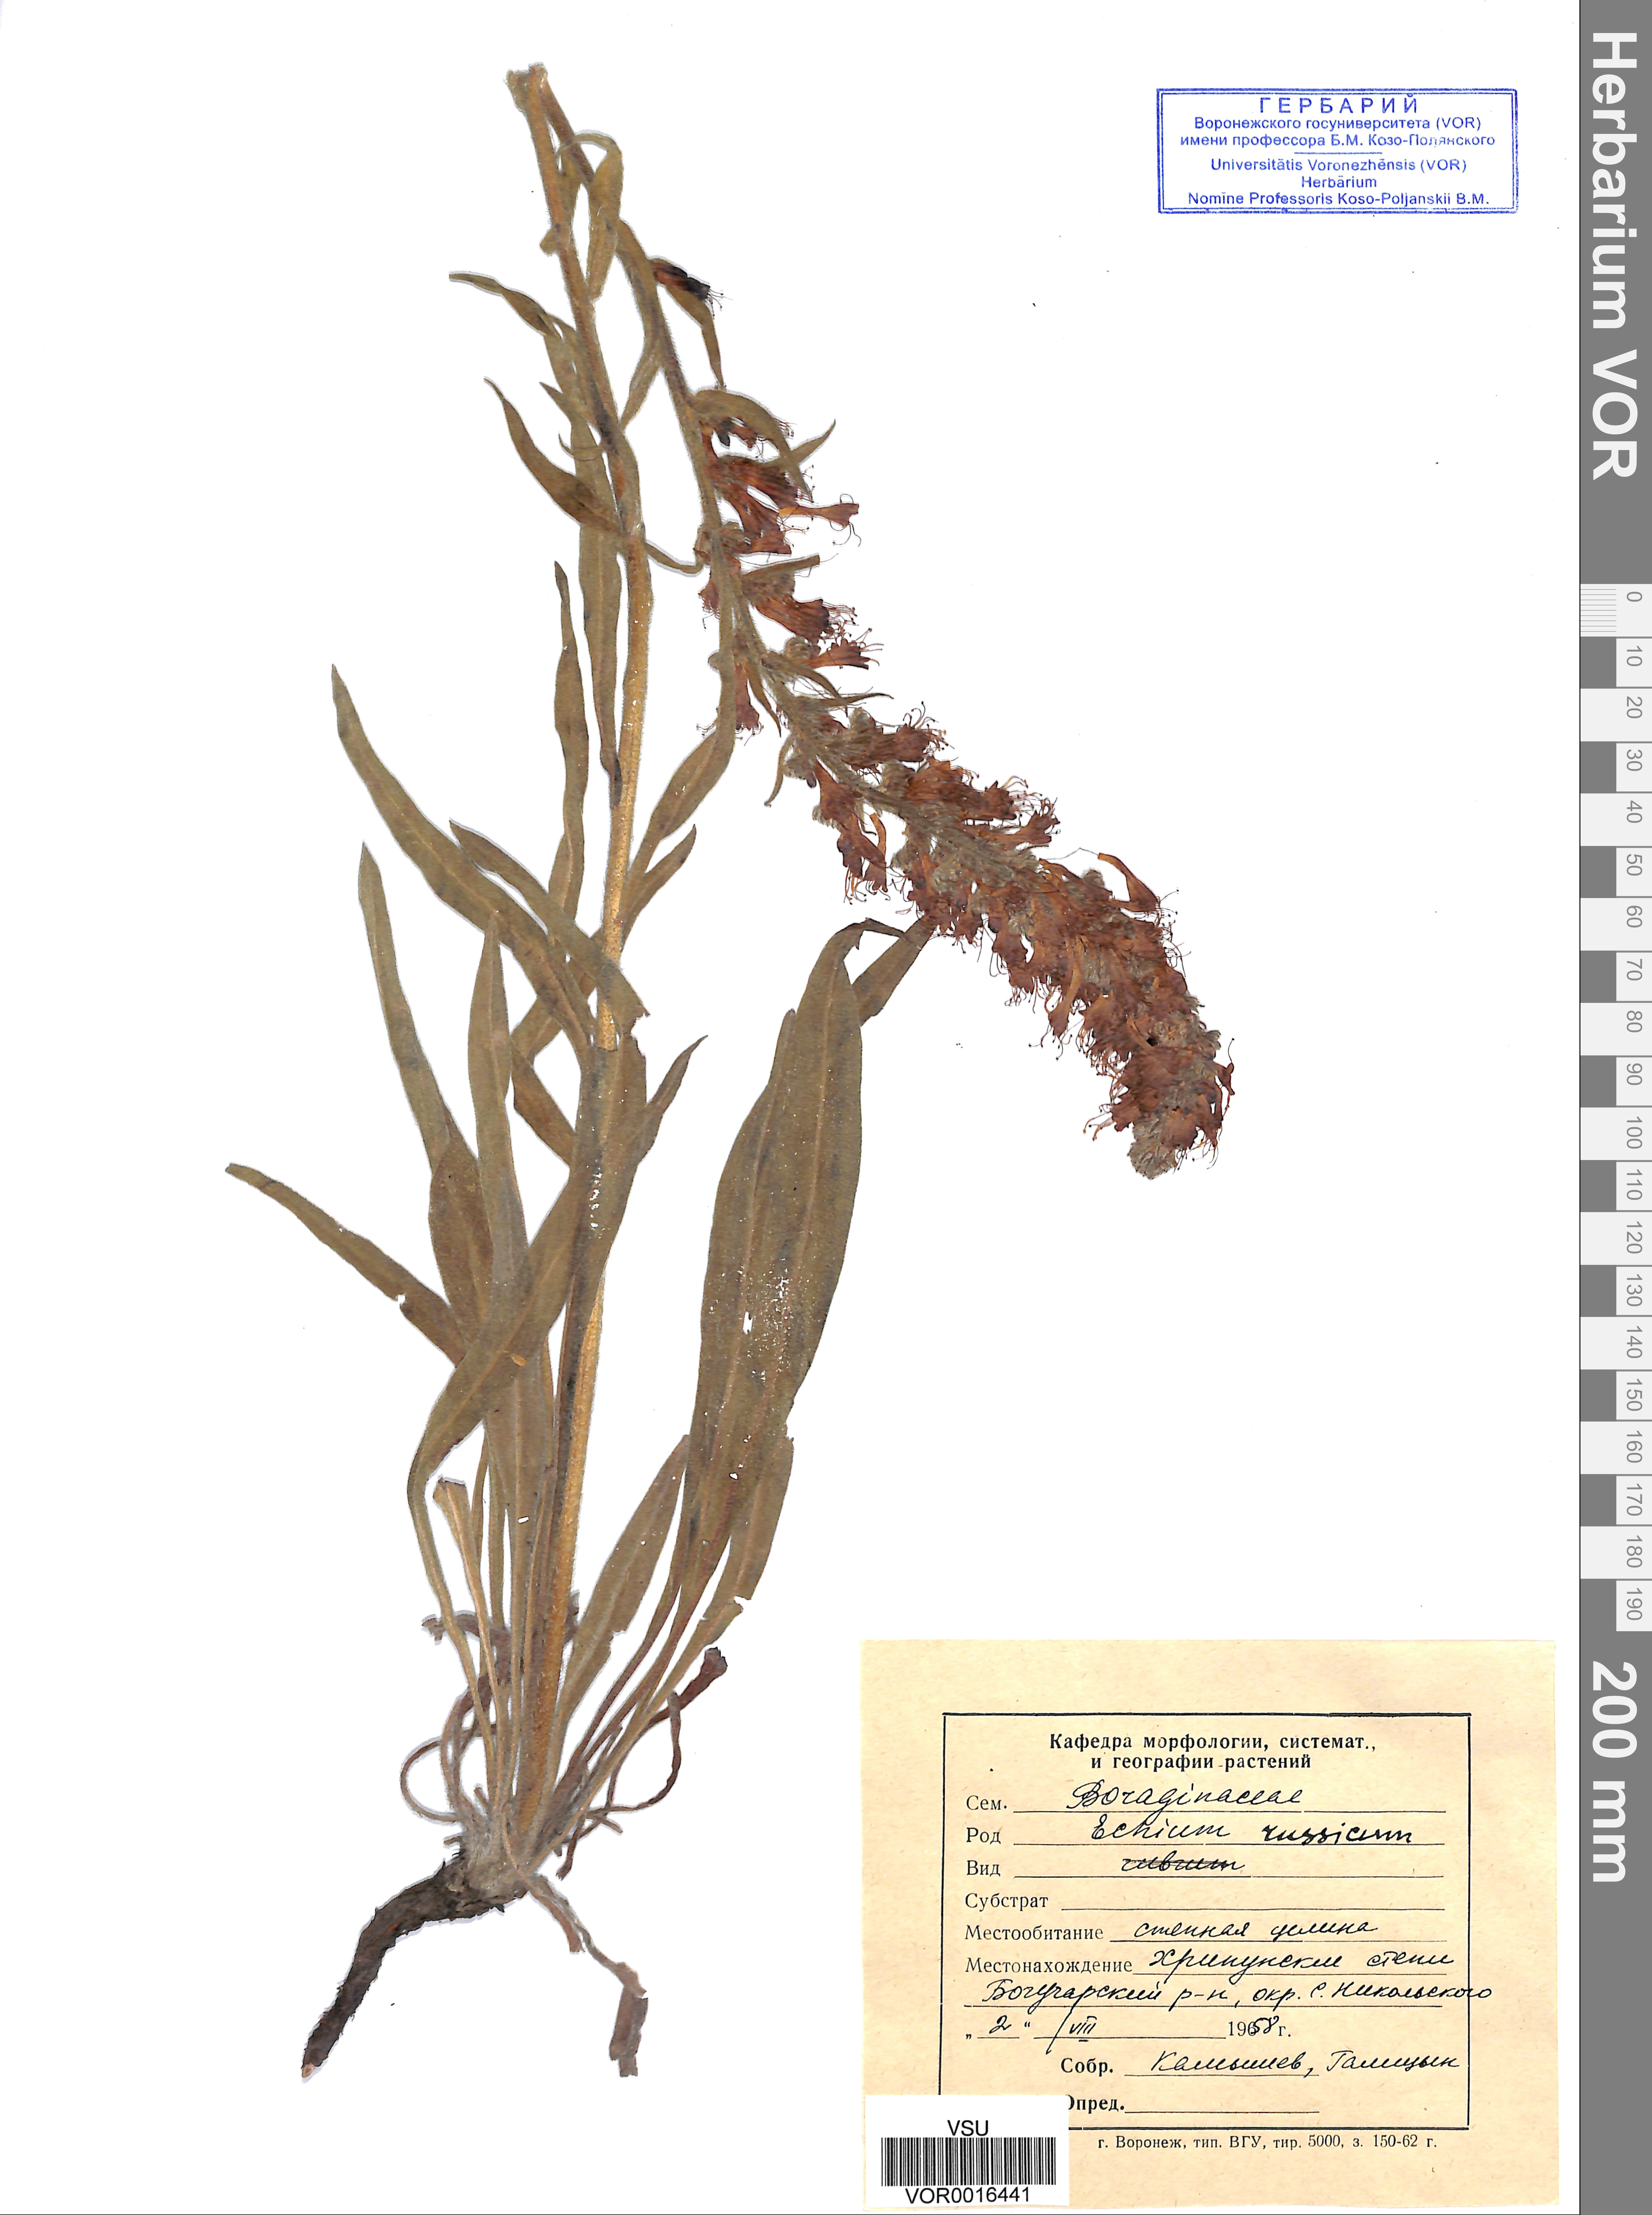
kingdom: Plantae
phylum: Tracheophyta
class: Magnoliopsida
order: Boraginales
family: Boraginaceae
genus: Pontechium
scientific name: Pontechium maculatum
